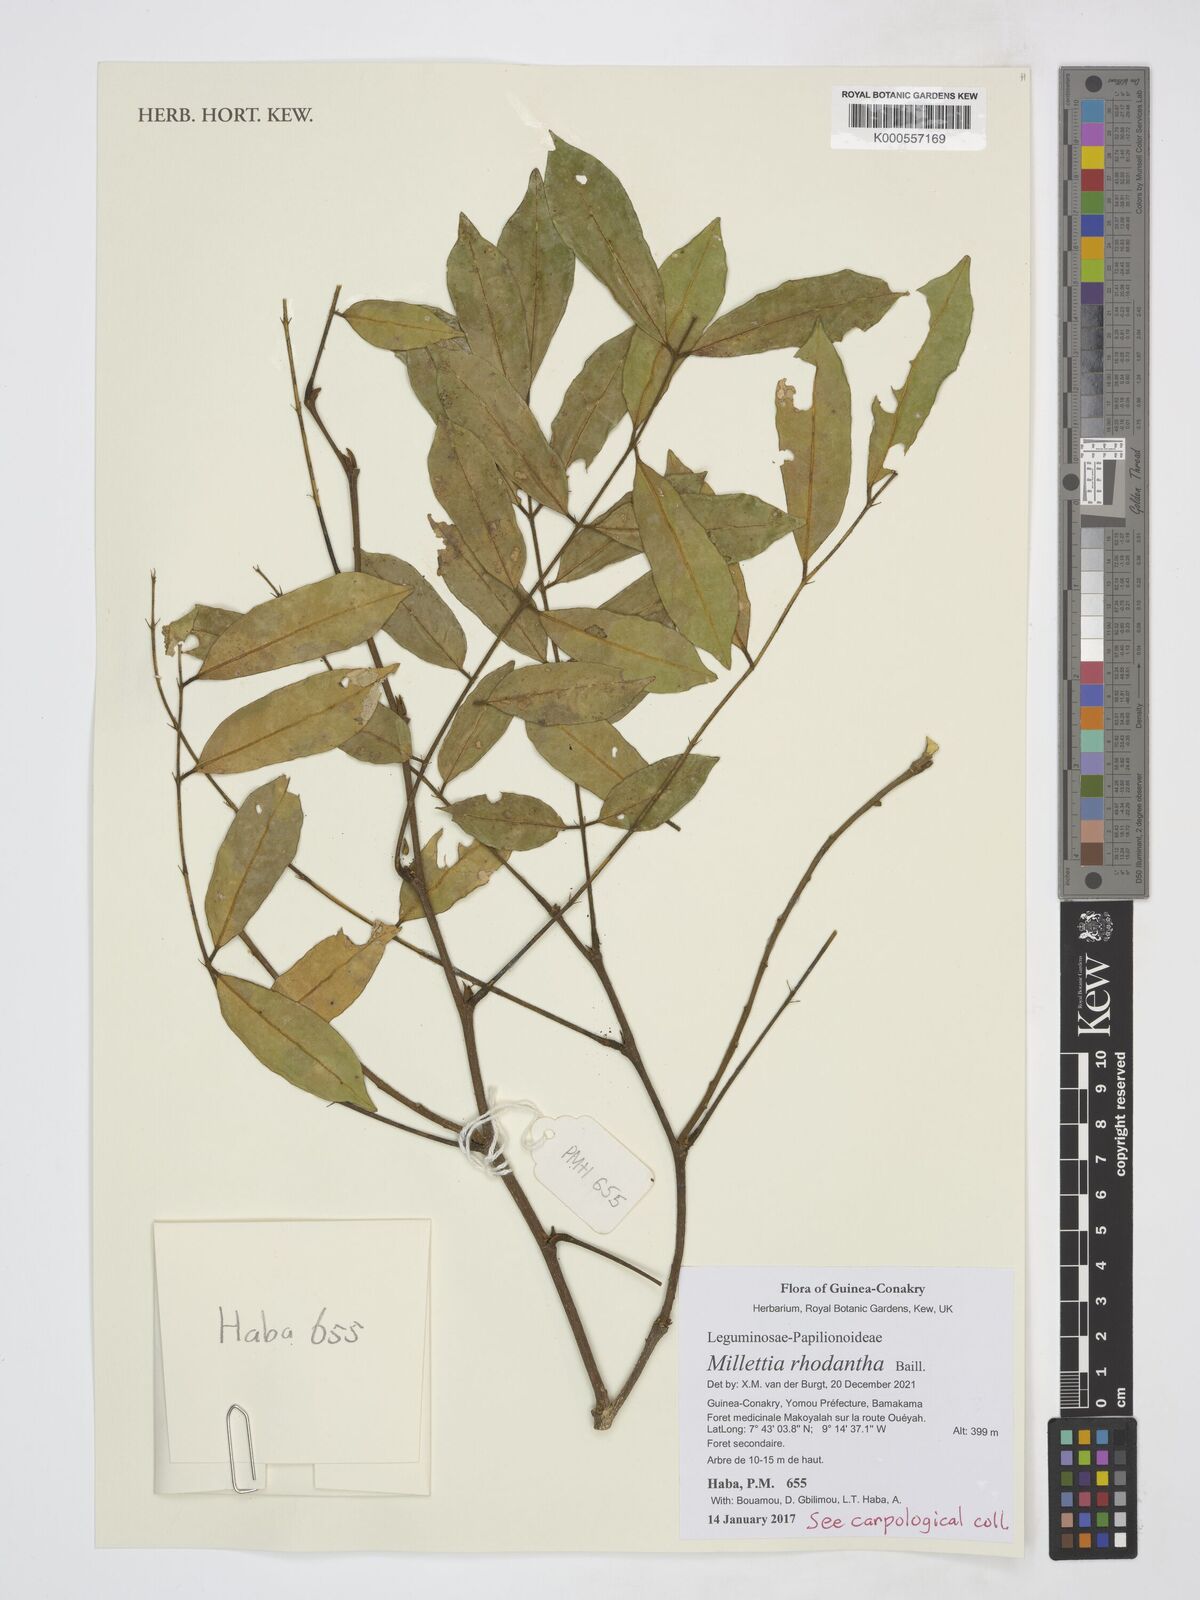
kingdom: Plantae
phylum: Tracheophyta
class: Magnoliopsida
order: Fabales
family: Fabaceae
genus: Millettia
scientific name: Millettia rhodantha
